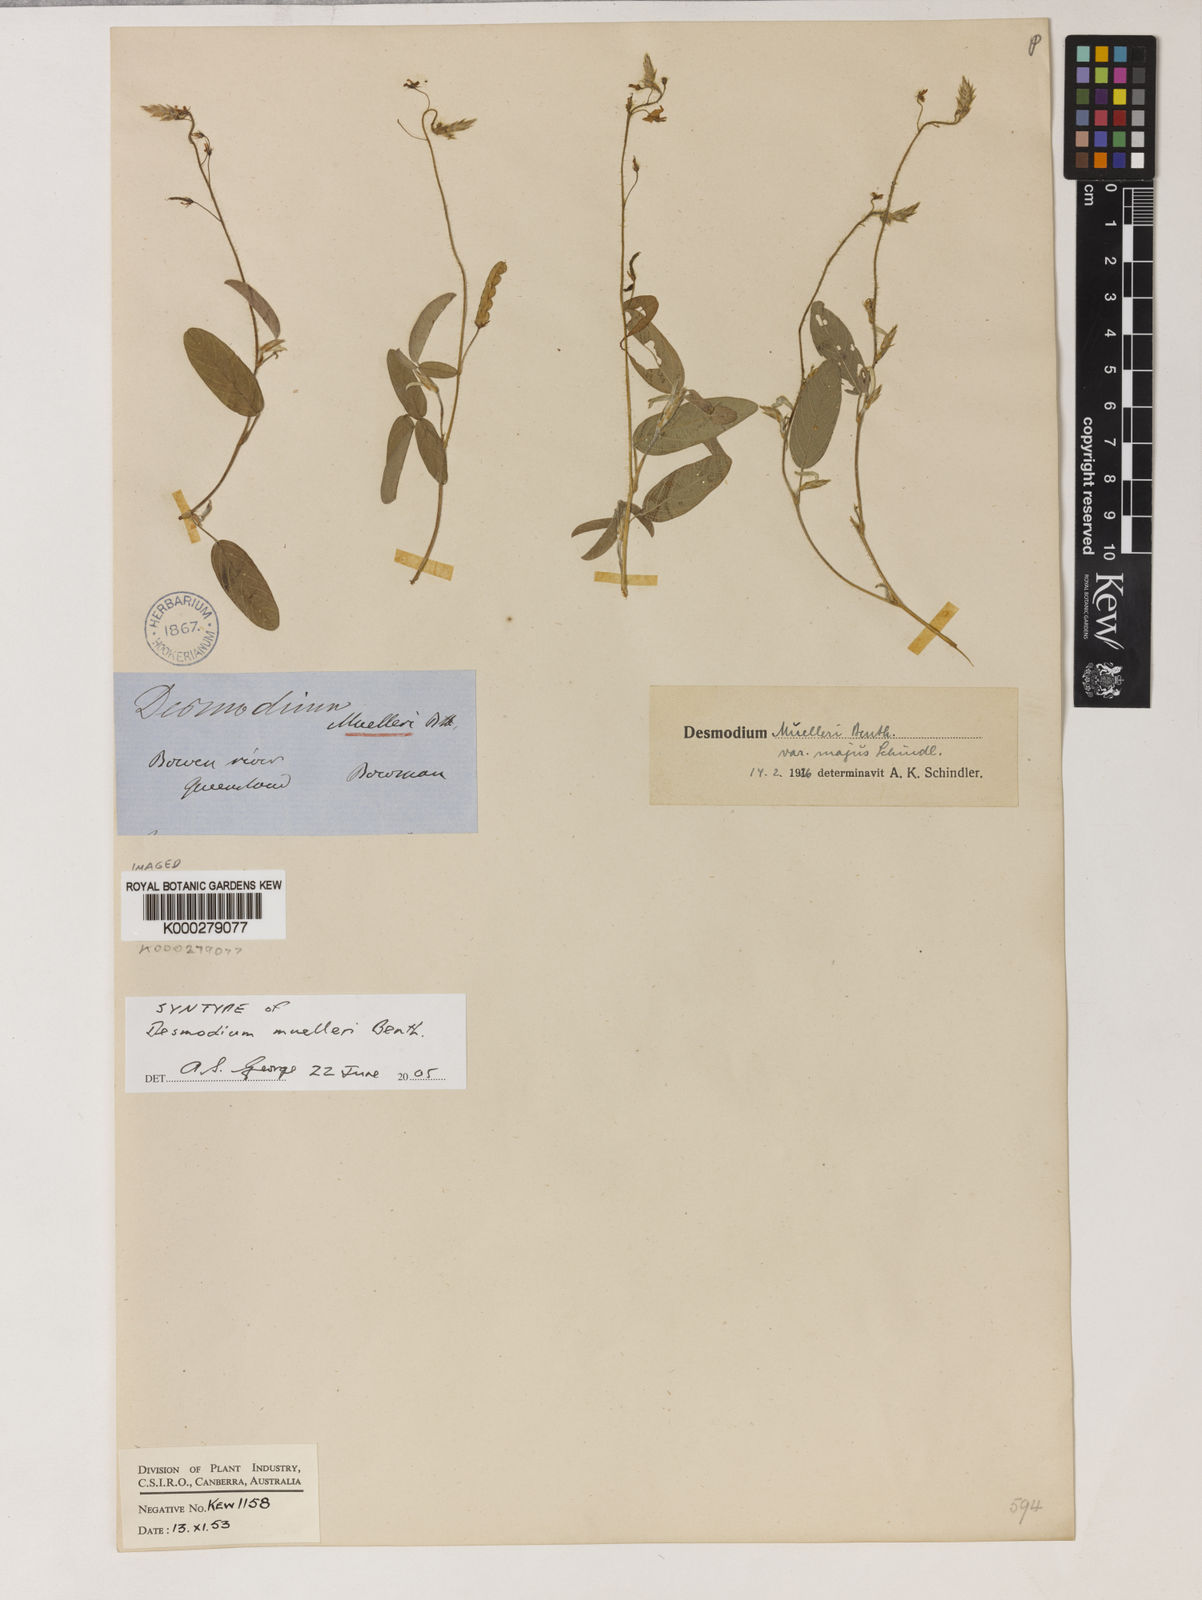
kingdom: Plantae
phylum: Tracheophyta
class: Magnoliopsida
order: Fabales
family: Fabaceae
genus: Grona
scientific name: Grona muelleri
